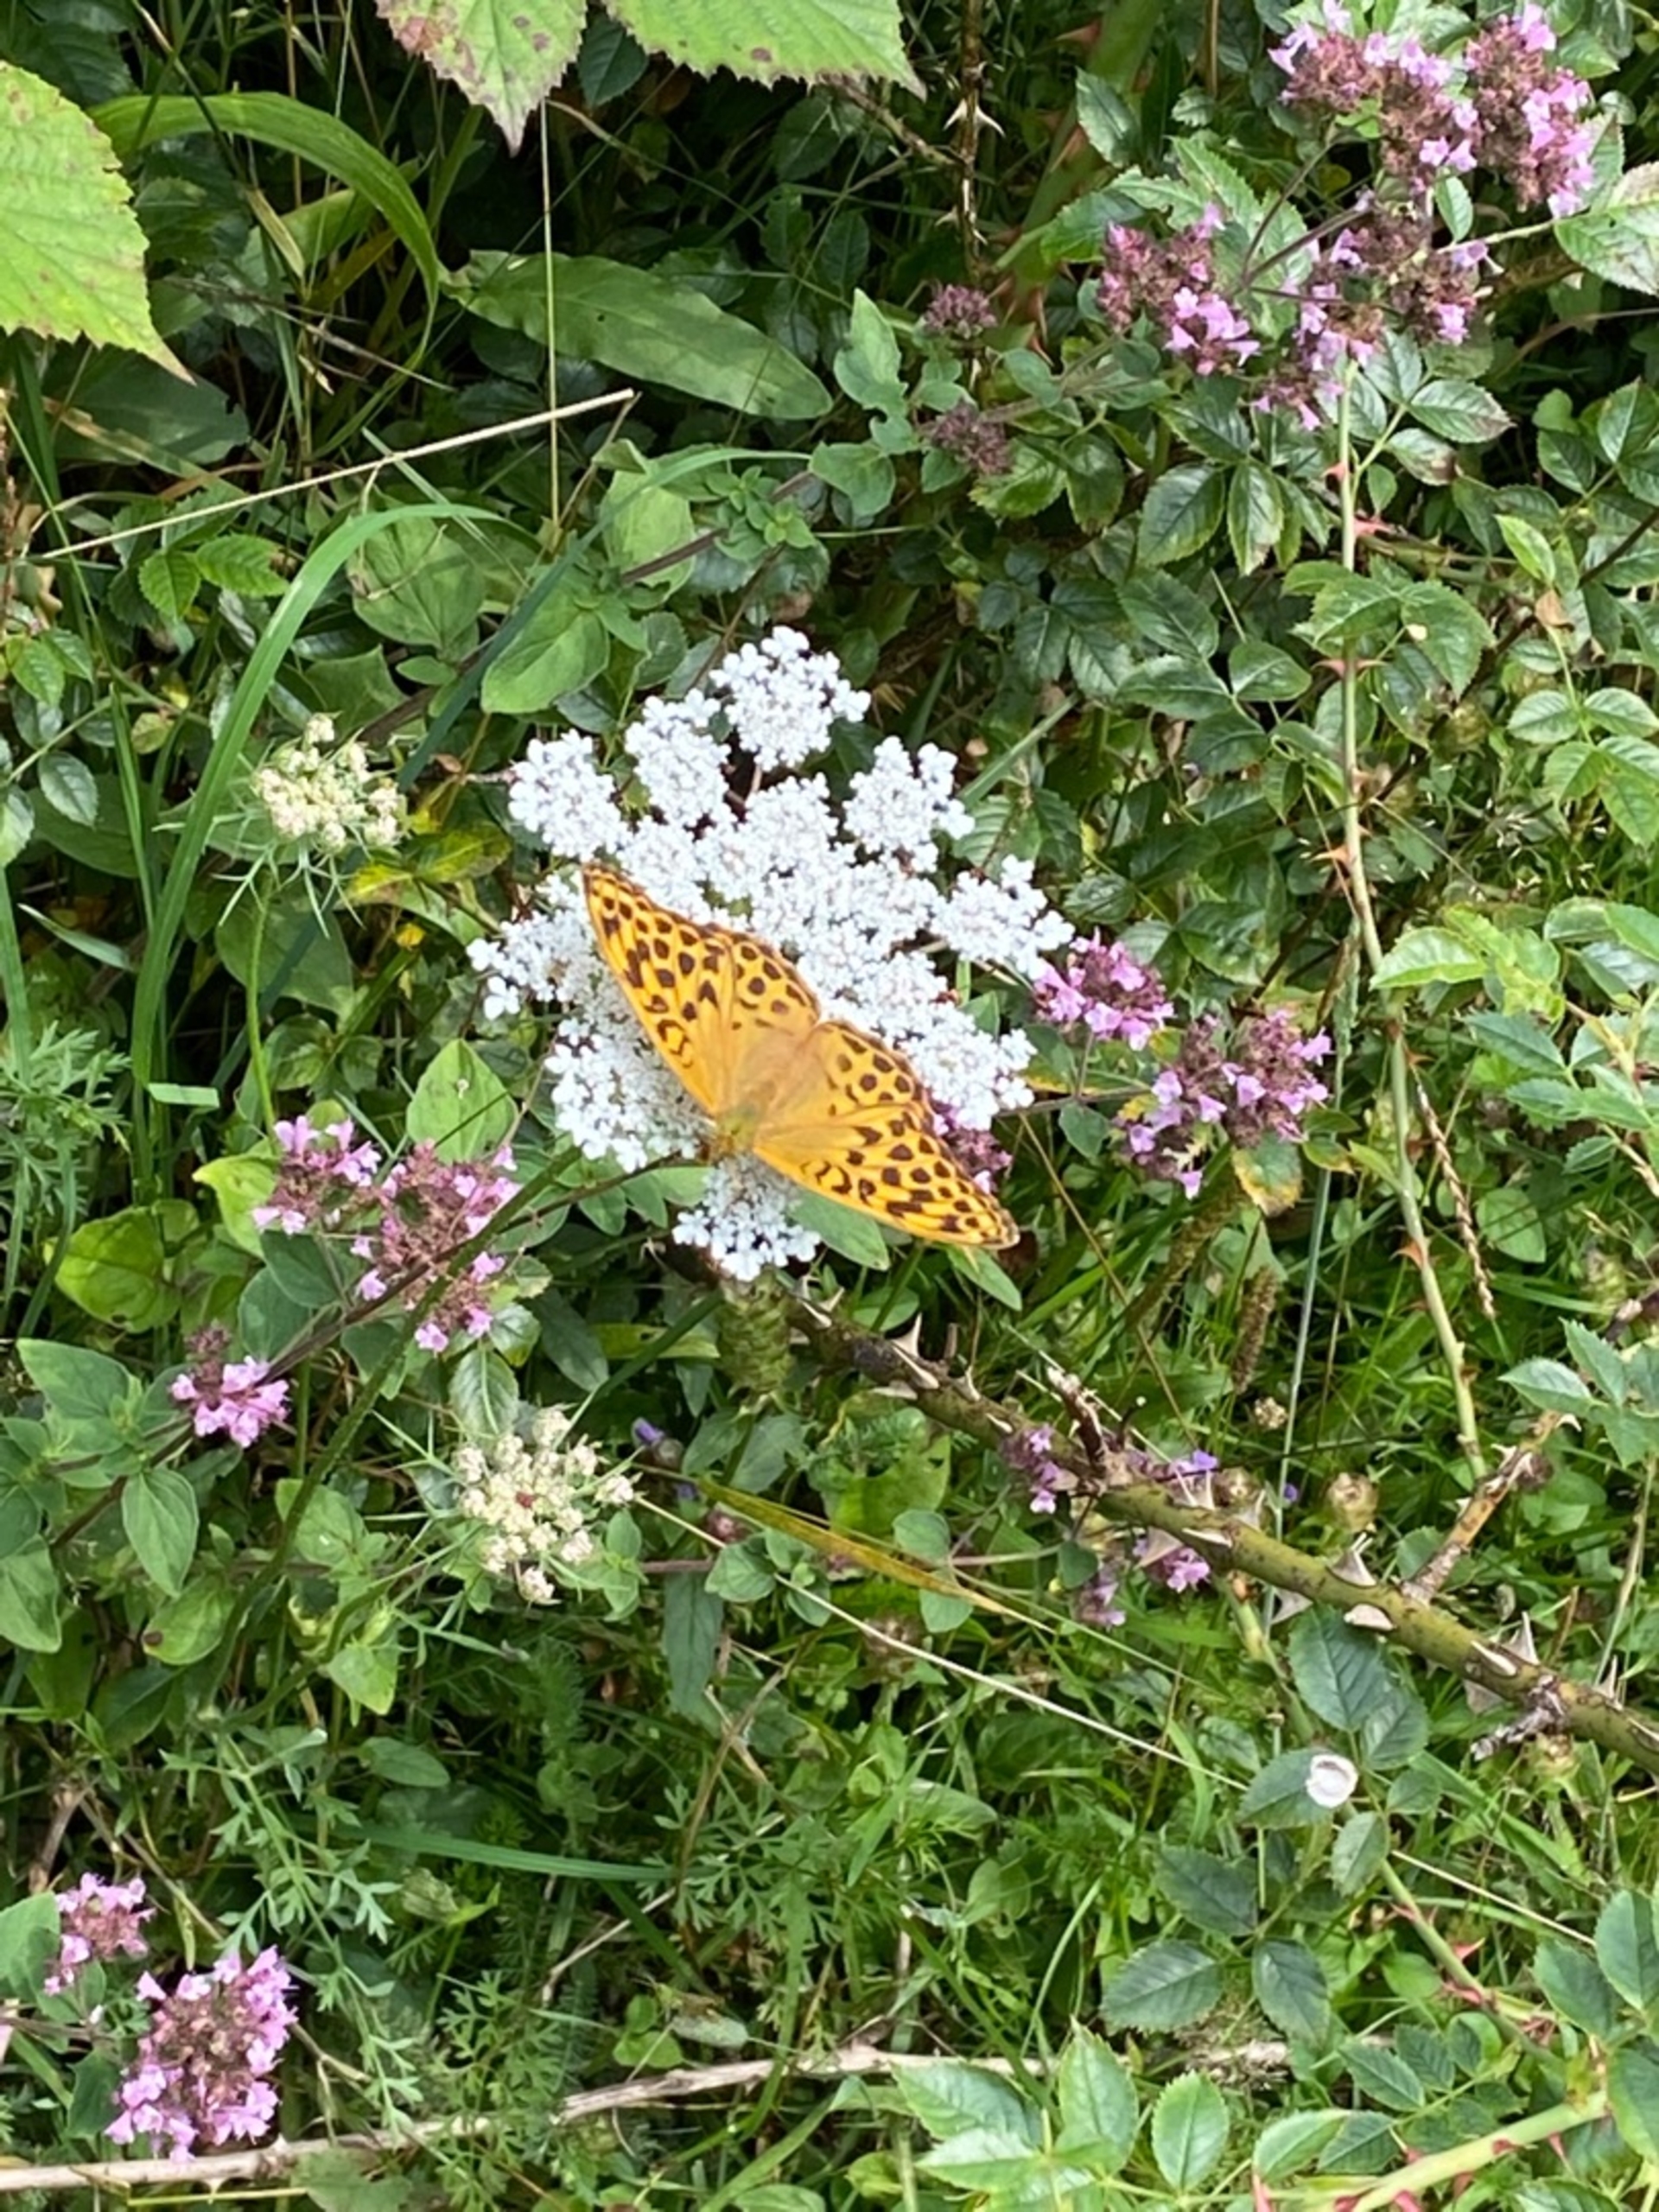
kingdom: Animalia
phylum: Arthropoda
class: Insecta
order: Lepidoptera
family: Nymphalidae
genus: Argynnis
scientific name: Argynnis paphia
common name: Kejserkåbe
